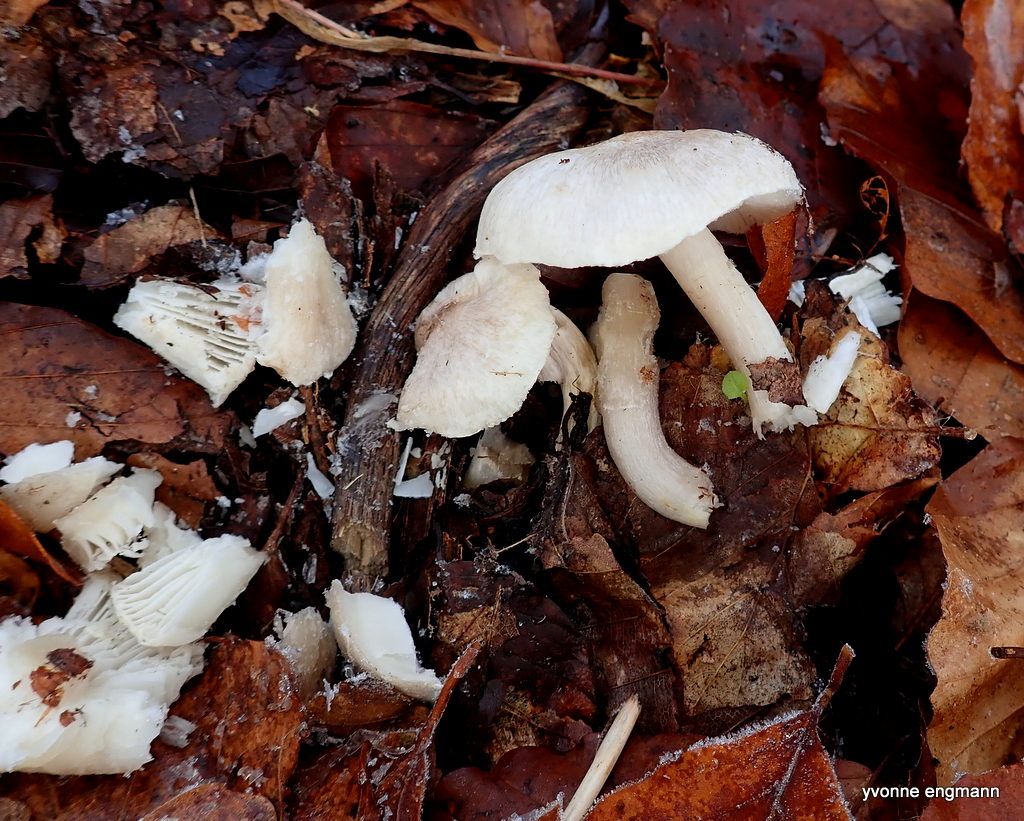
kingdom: Fungi
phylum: Basidiomycota
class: Agaricomycetes
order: Agaricales
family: Tricholomataceae
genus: Tricholoma
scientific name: Tricholoma scalpturatum
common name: gulplettet ridderhat
